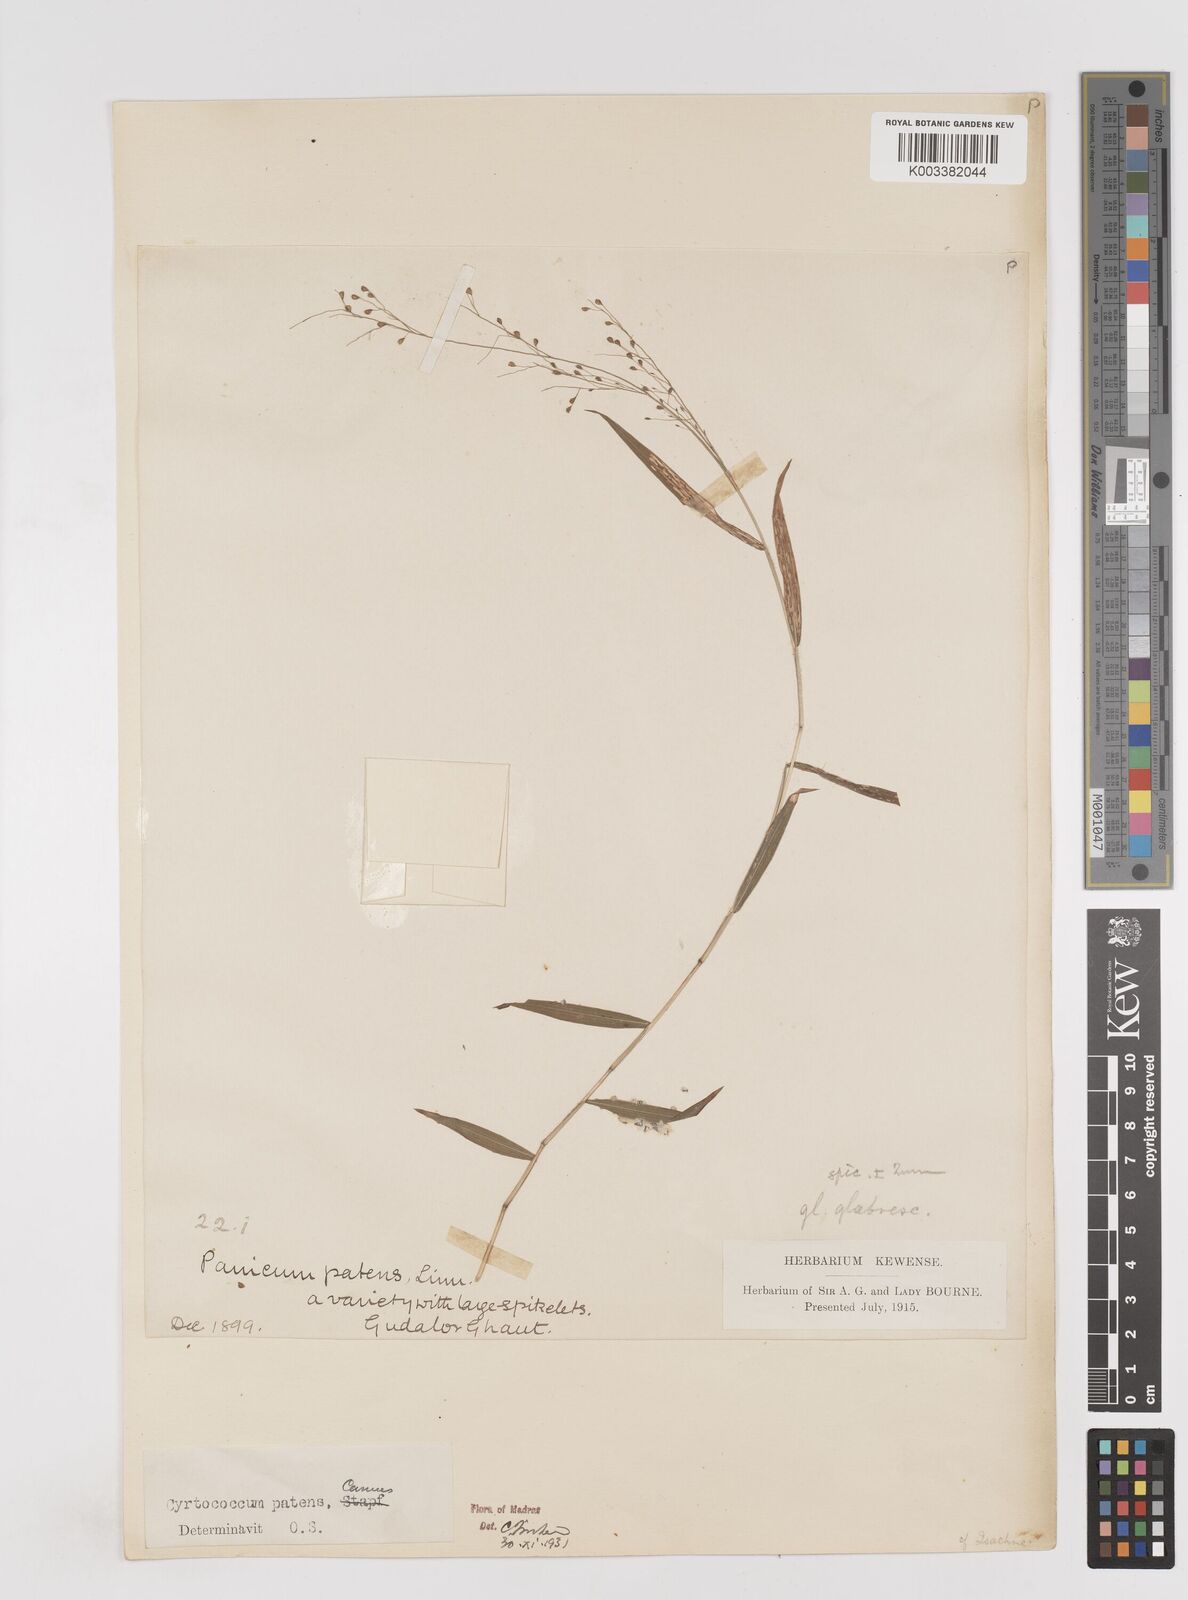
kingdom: Plantae
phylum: Tracheophyta
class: Liliopsida
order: Poales
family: Poaceae
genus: Cyrtococcum
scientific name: Cyrtococcum deccanense
